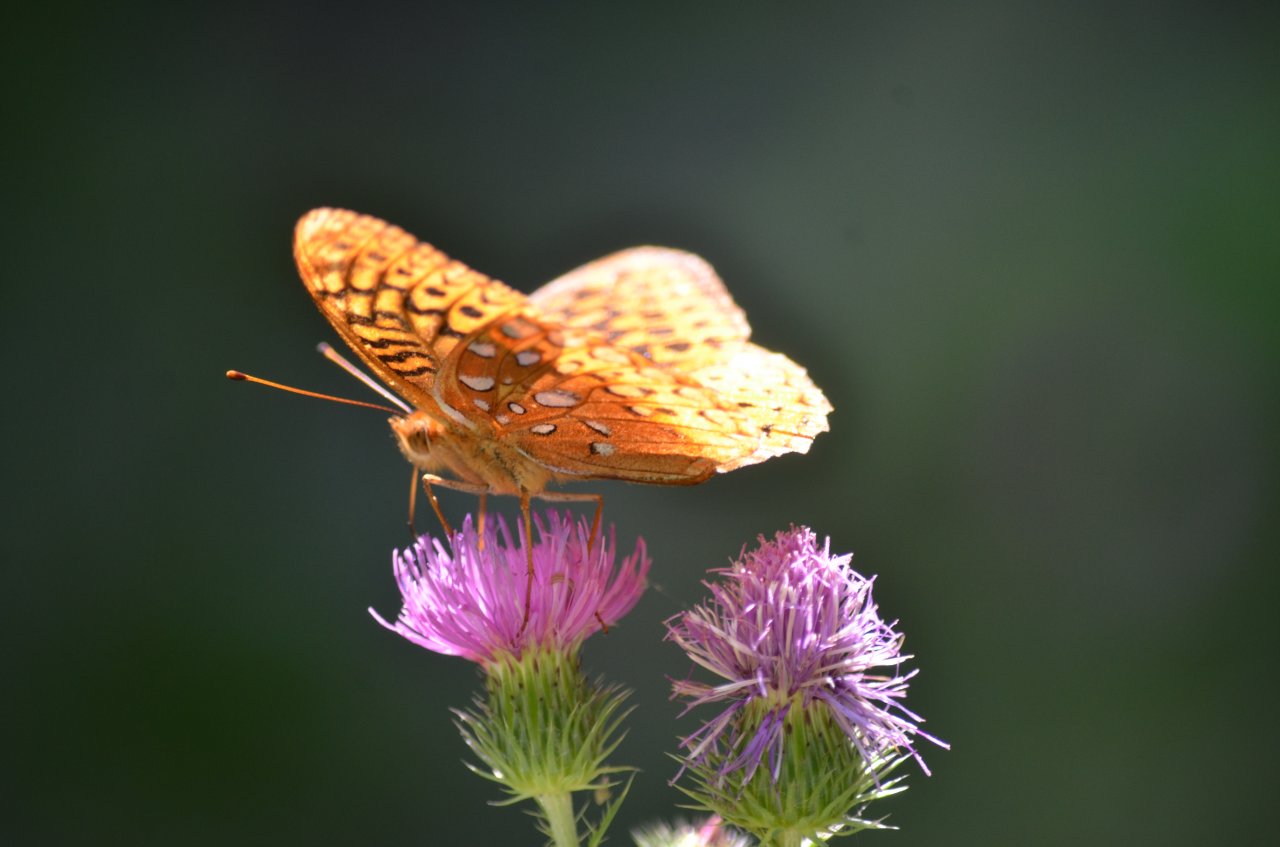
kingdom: Animalia
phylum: Arthropoda
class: Insecta
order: Lepidoptera
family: Nymphalidae
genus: Speyeria
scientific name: Speyeria cybele
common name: Great Spangled Fritillary
